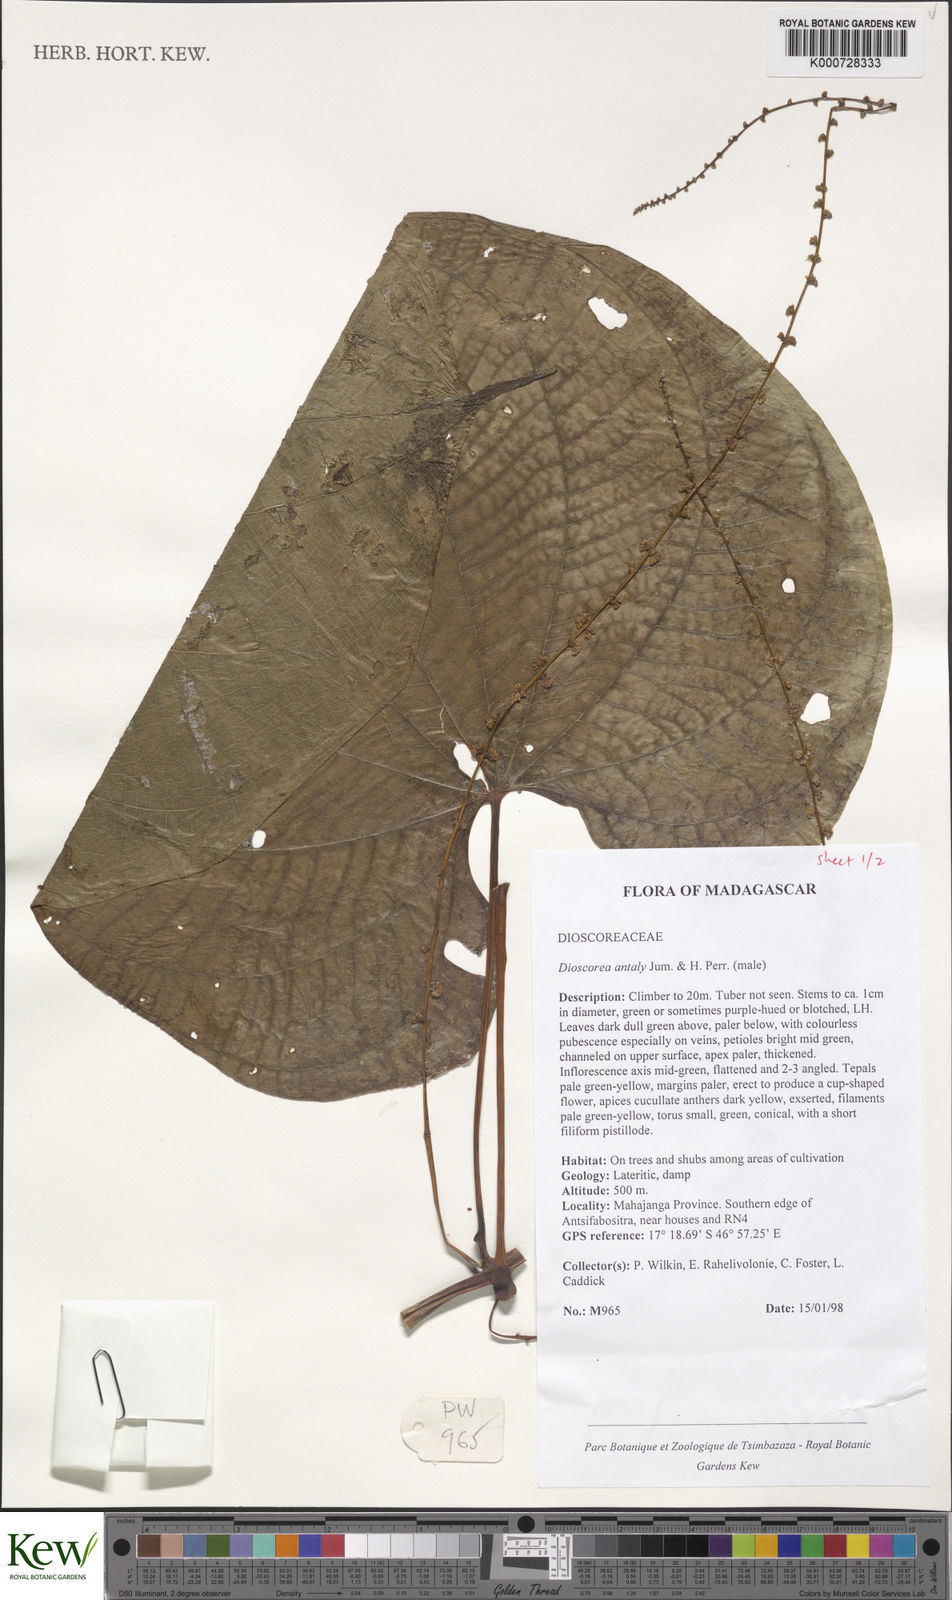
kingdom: Plantae
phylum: Tracheophyta
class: Liliopsida
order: Dioscoreales
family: Dioscoreaceae
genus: Dioscorea
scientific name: Dioscorea antaly
